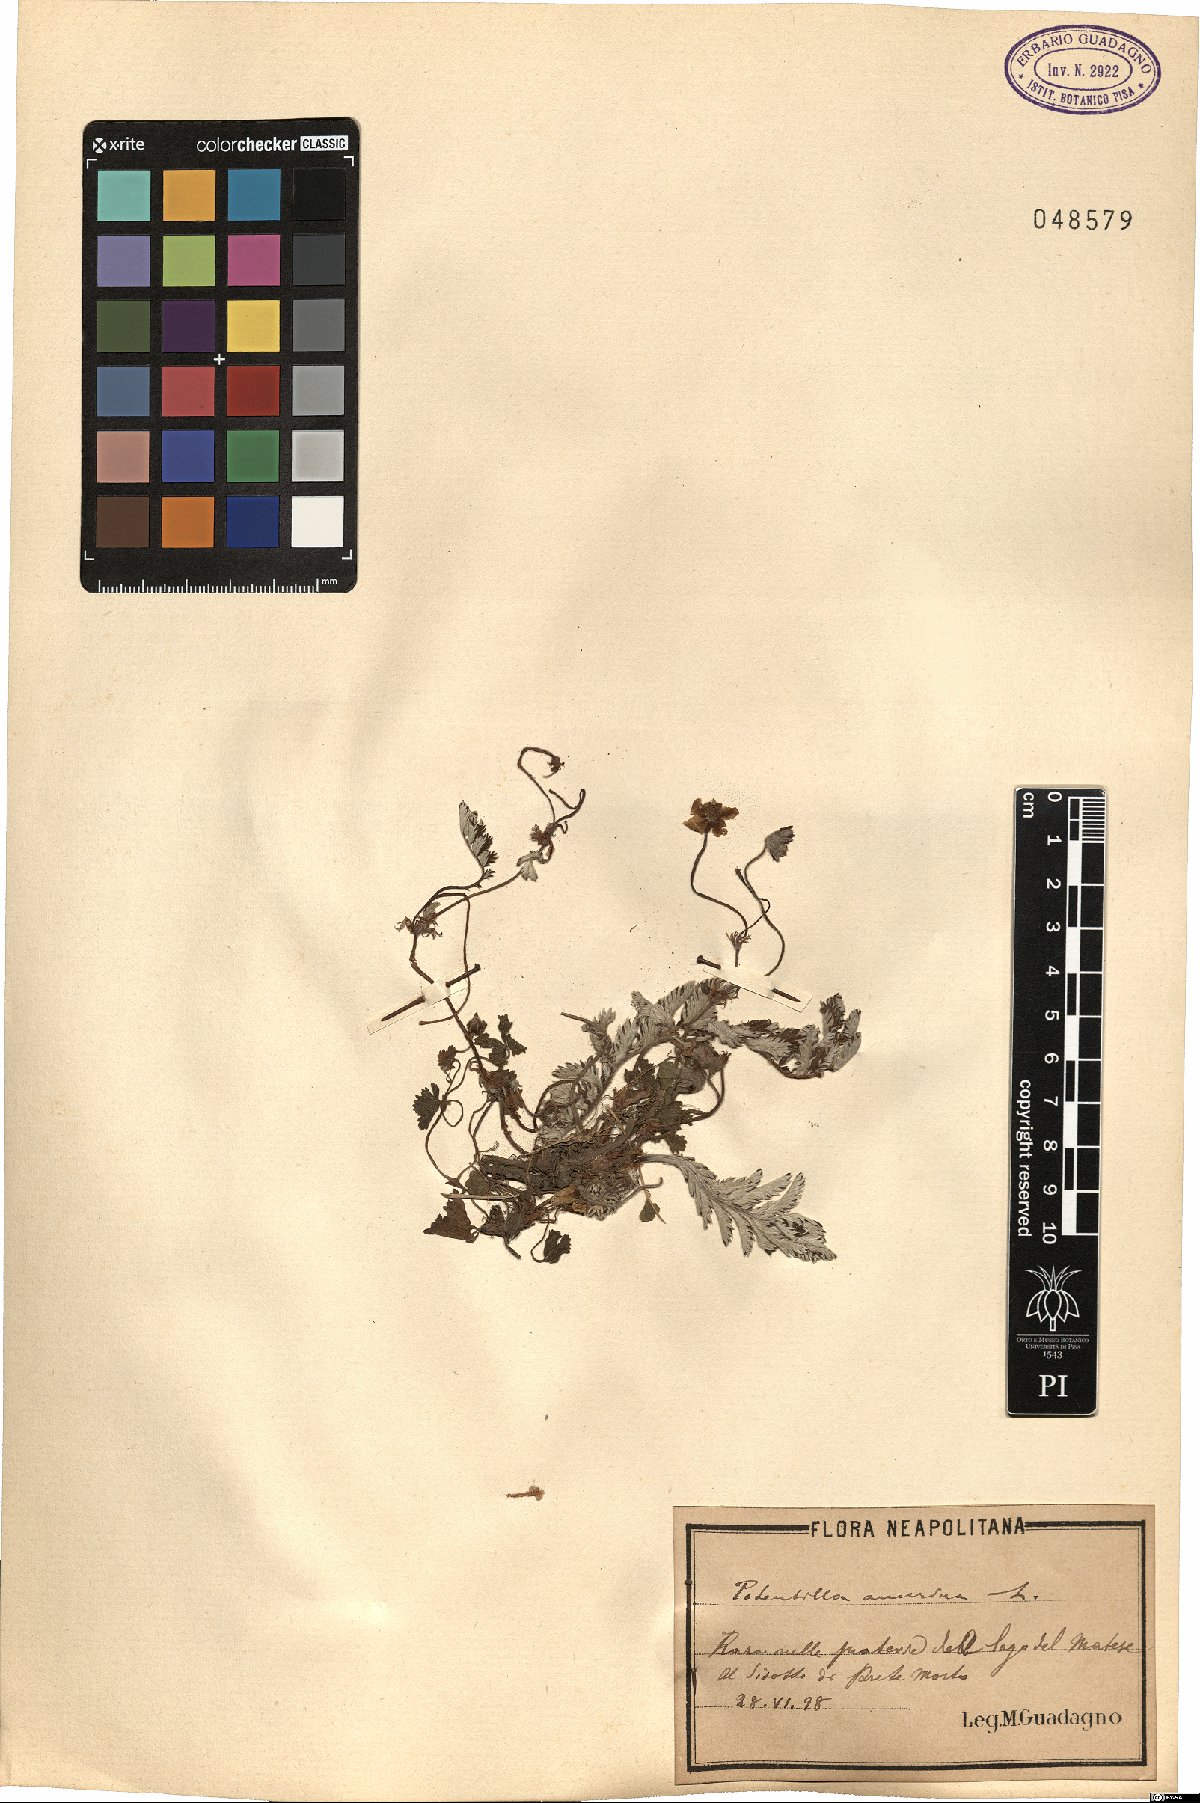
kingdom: Plantae
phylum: Tracheophyta
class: Magnoliopsida
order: Rosales
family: Rosaceae
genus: Argentina
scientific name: Argentina anserina
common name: Common silverweed
